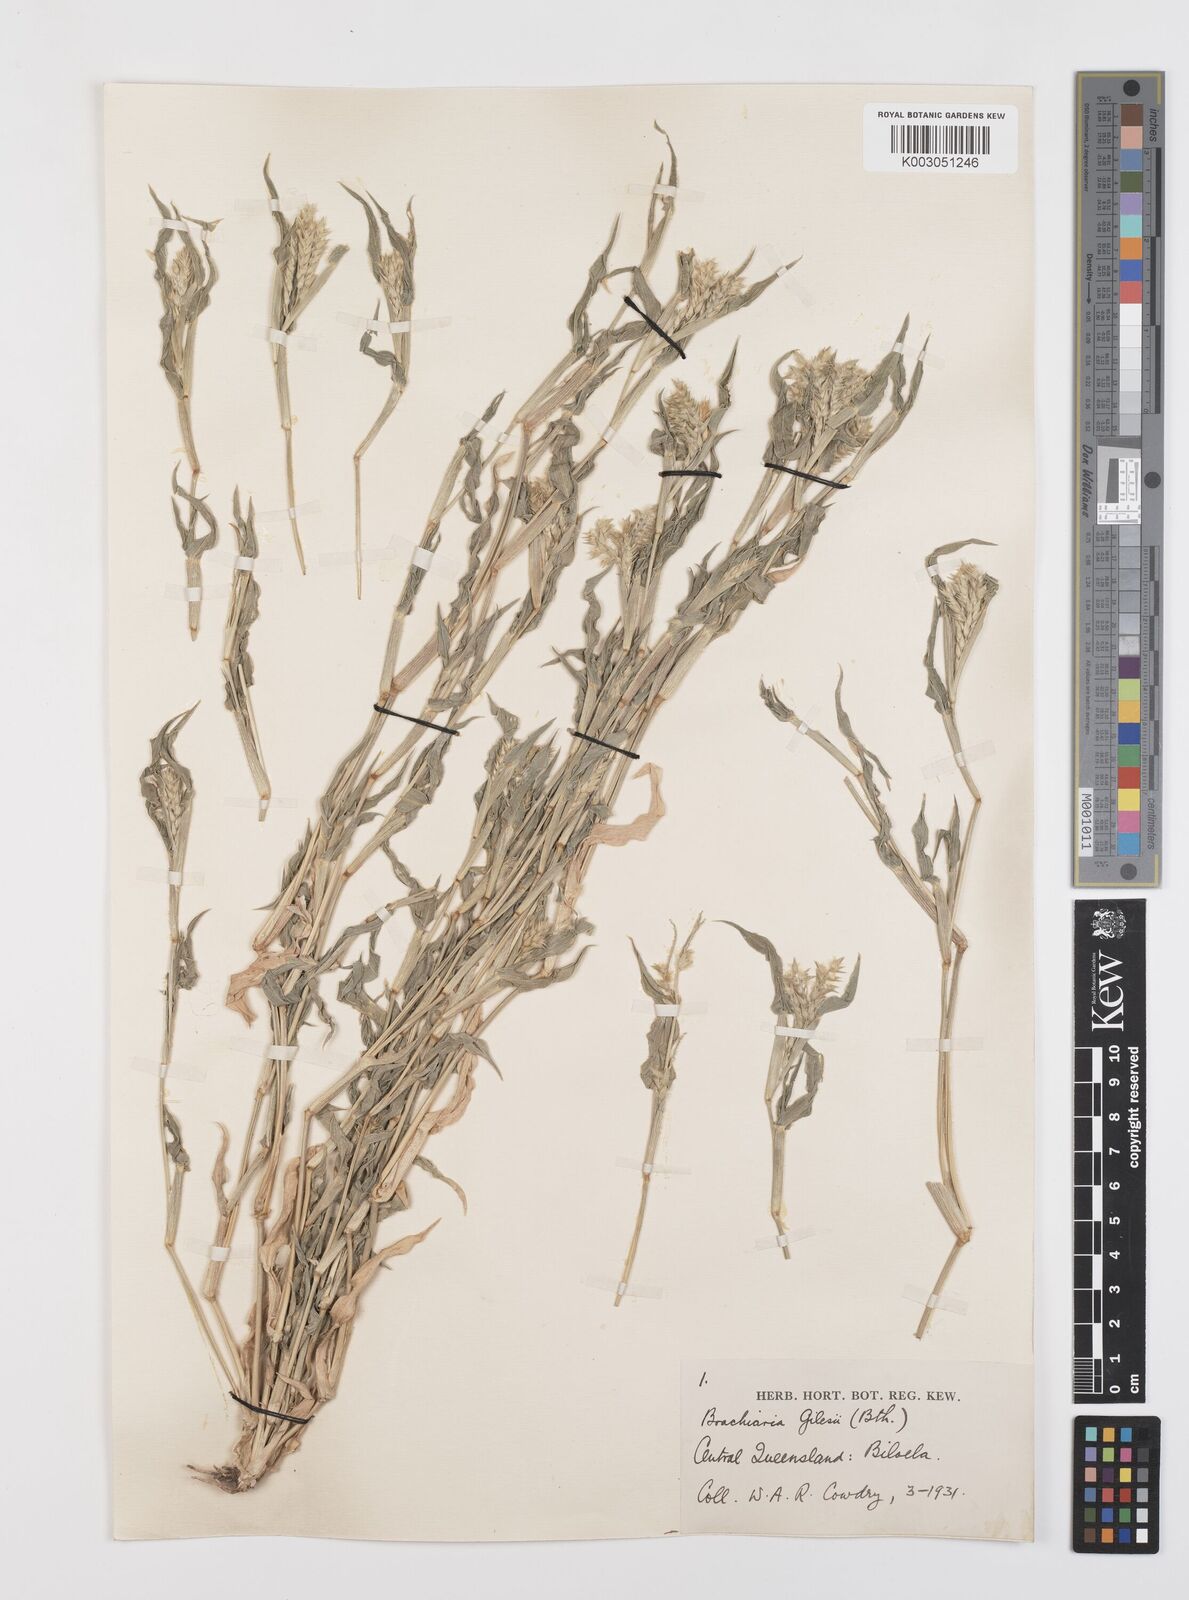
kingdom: Plantae
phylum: Tracheophyta
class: Liliopsida
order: Poales
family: Poaceae
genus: Urochloa
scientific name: Urochloa gilesii
